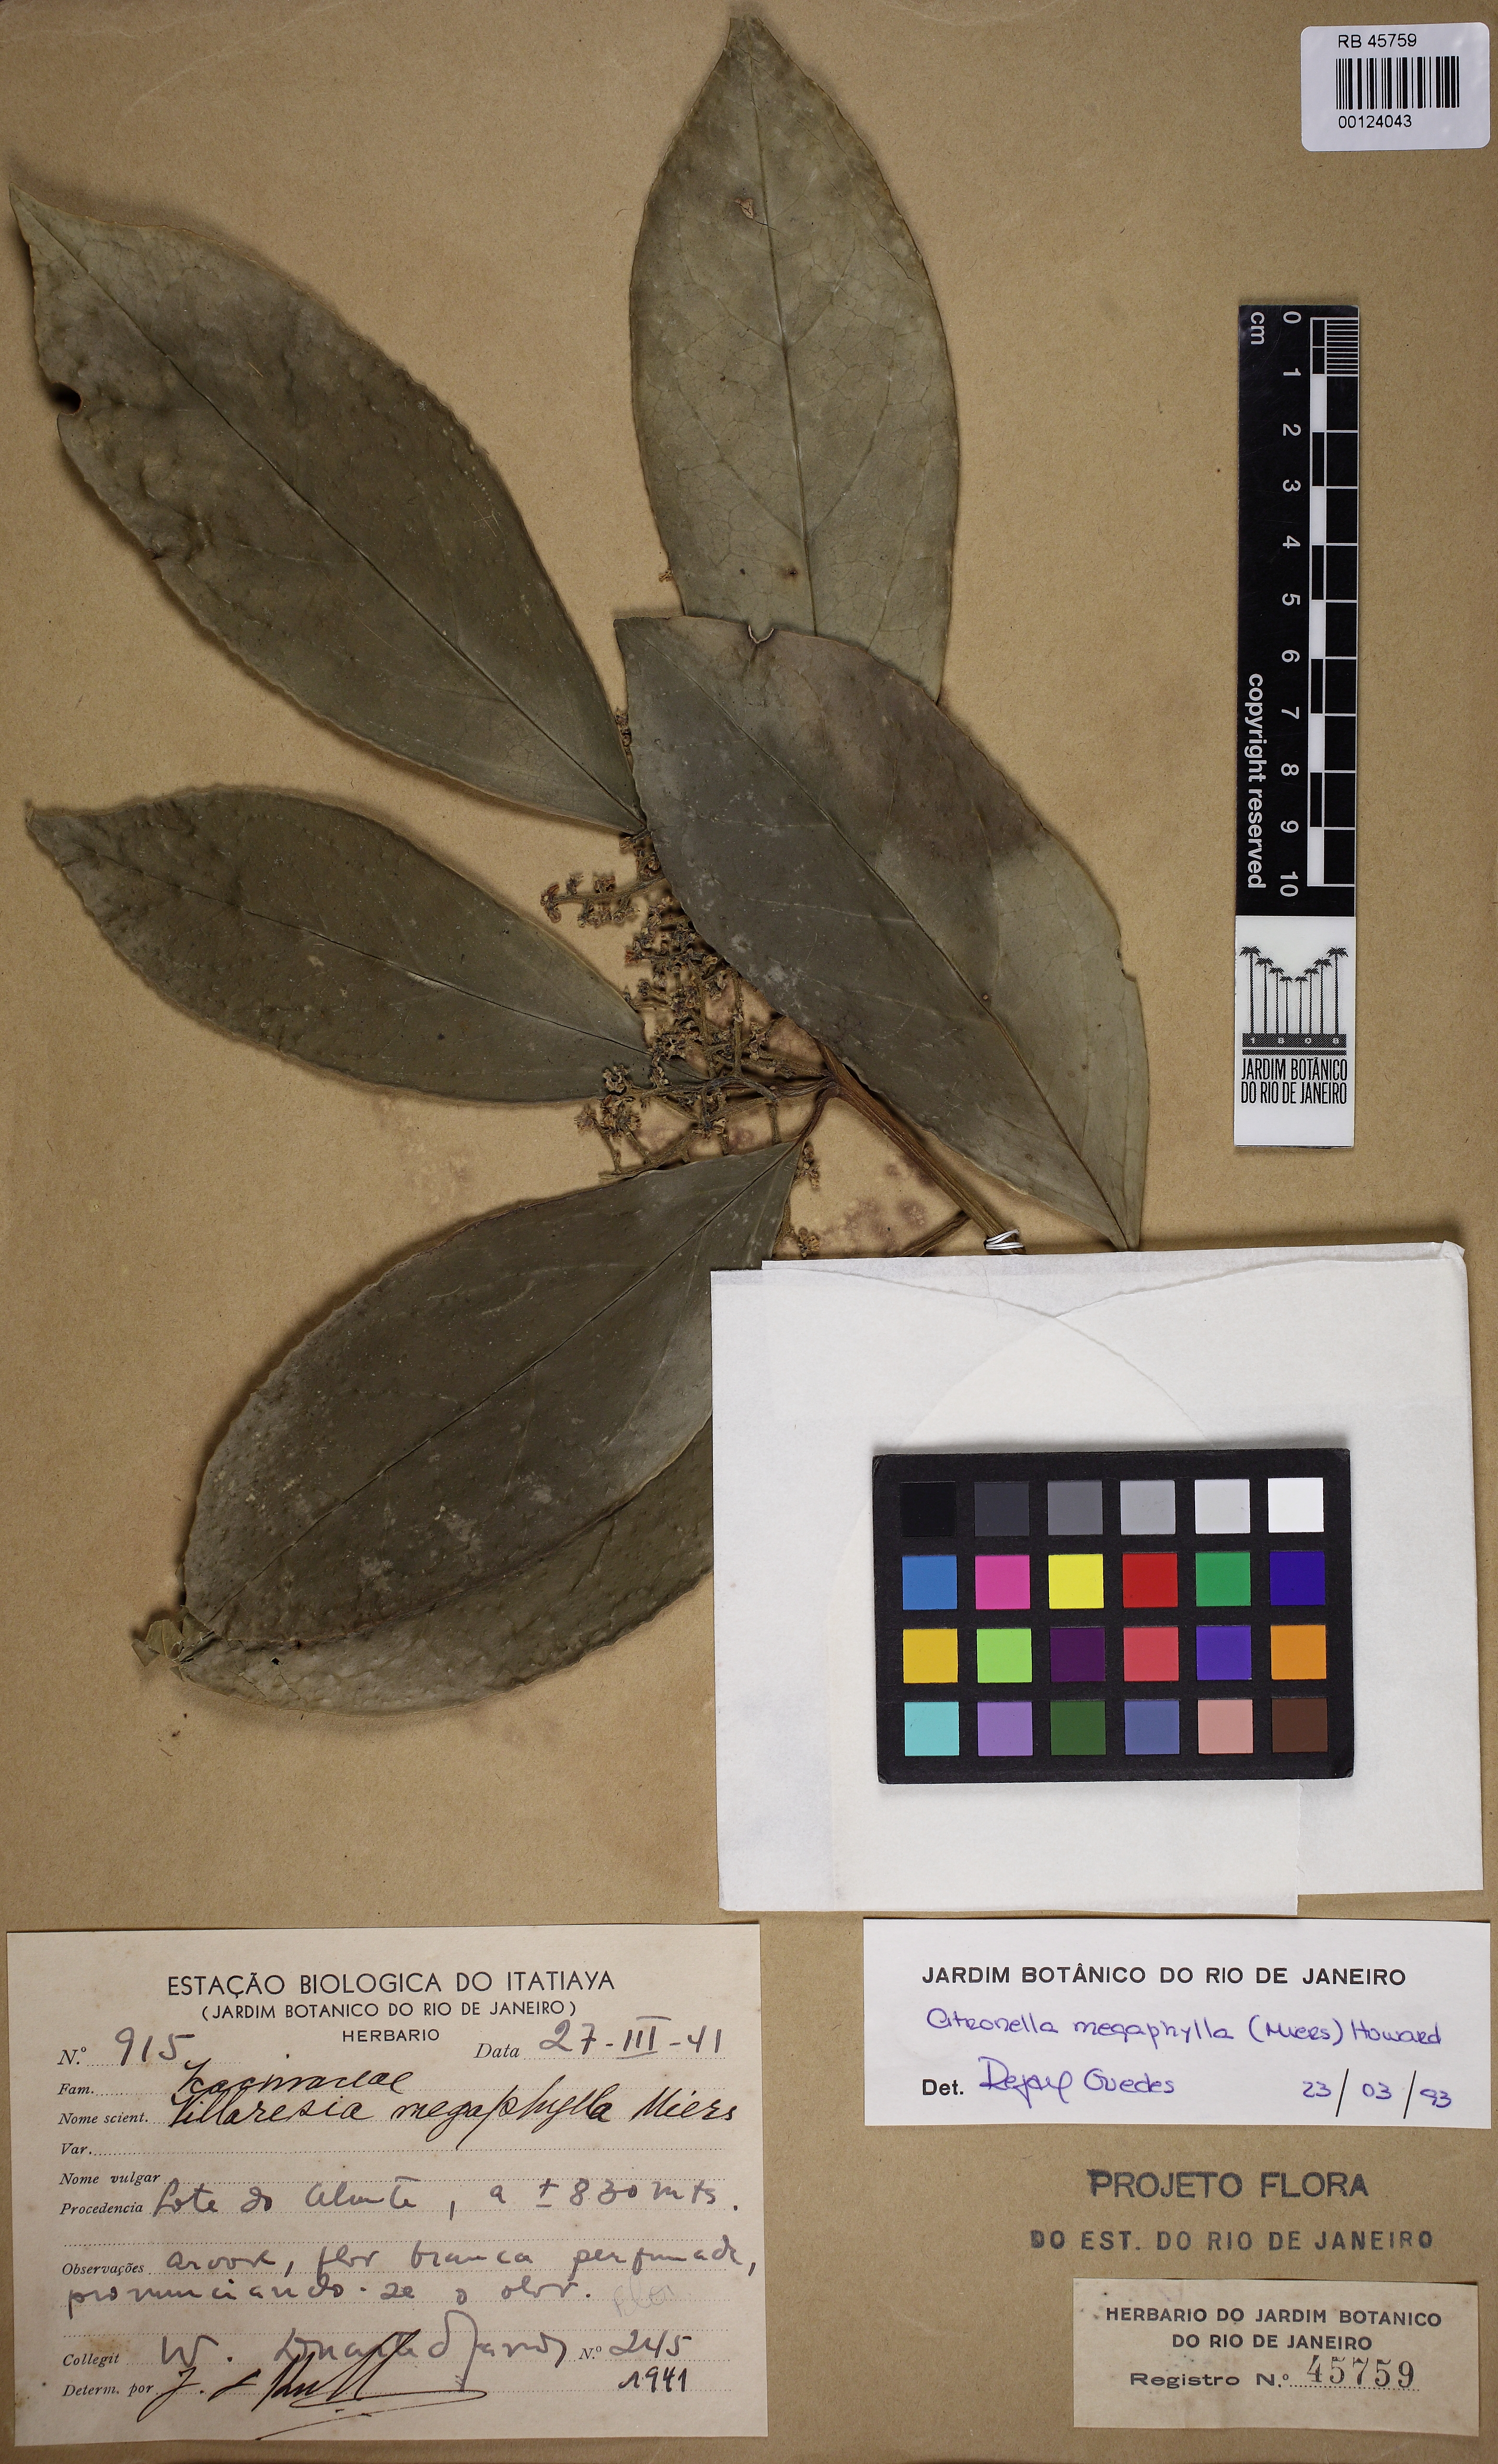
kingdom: Plantae
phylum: Tracheophyta
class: Magnoliopsida
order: Cardiopteridales
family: Cardiopteridaceae
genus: Citronella
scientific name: Citronella paniculata
